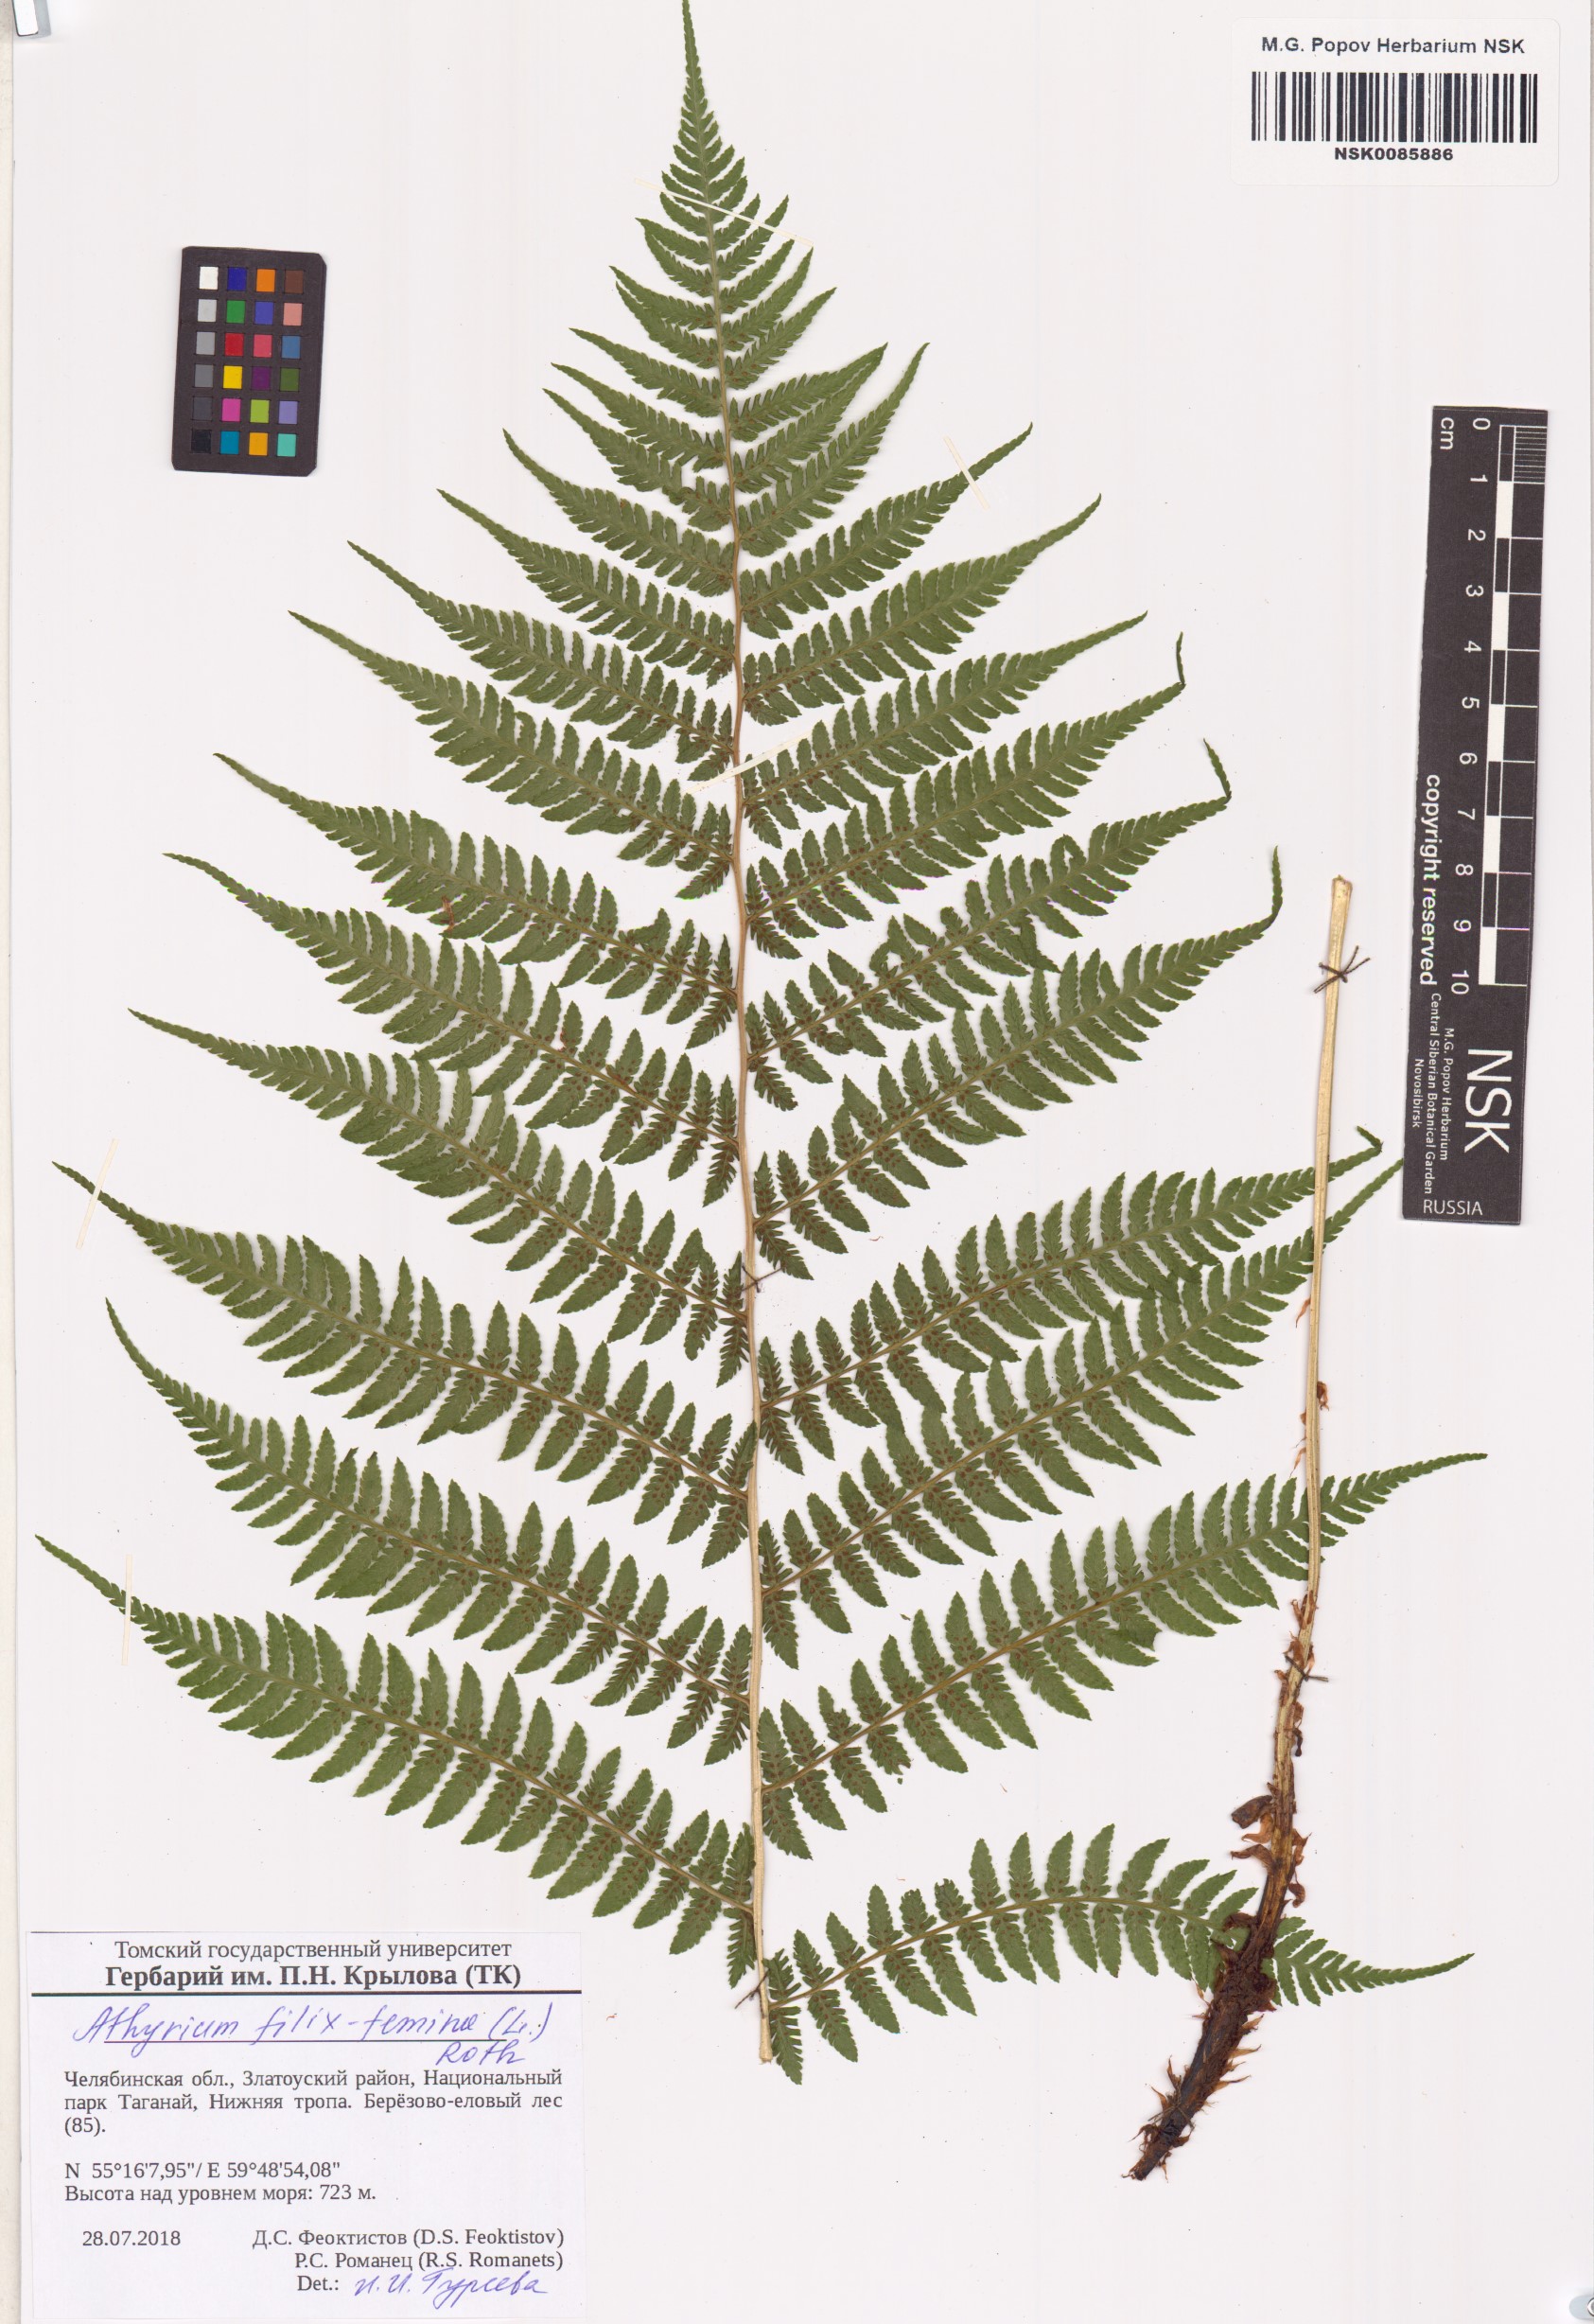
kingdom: Plantae
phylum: Tracheophyta
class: Polypodiopsida
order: Polypodiales
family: Athyriaceae
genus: Athyrium
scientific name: Athyrium filix-femina
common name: Lady fern
